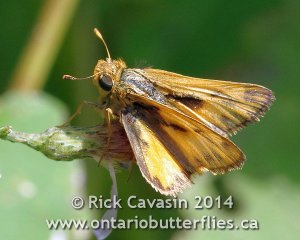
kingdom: Animalia
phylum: Arthropoda
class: Insecta
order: Lepidoptera
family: Hesperiidae
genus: Hylephila
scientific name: Hylephila phyleus
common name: Fiery Skipper
